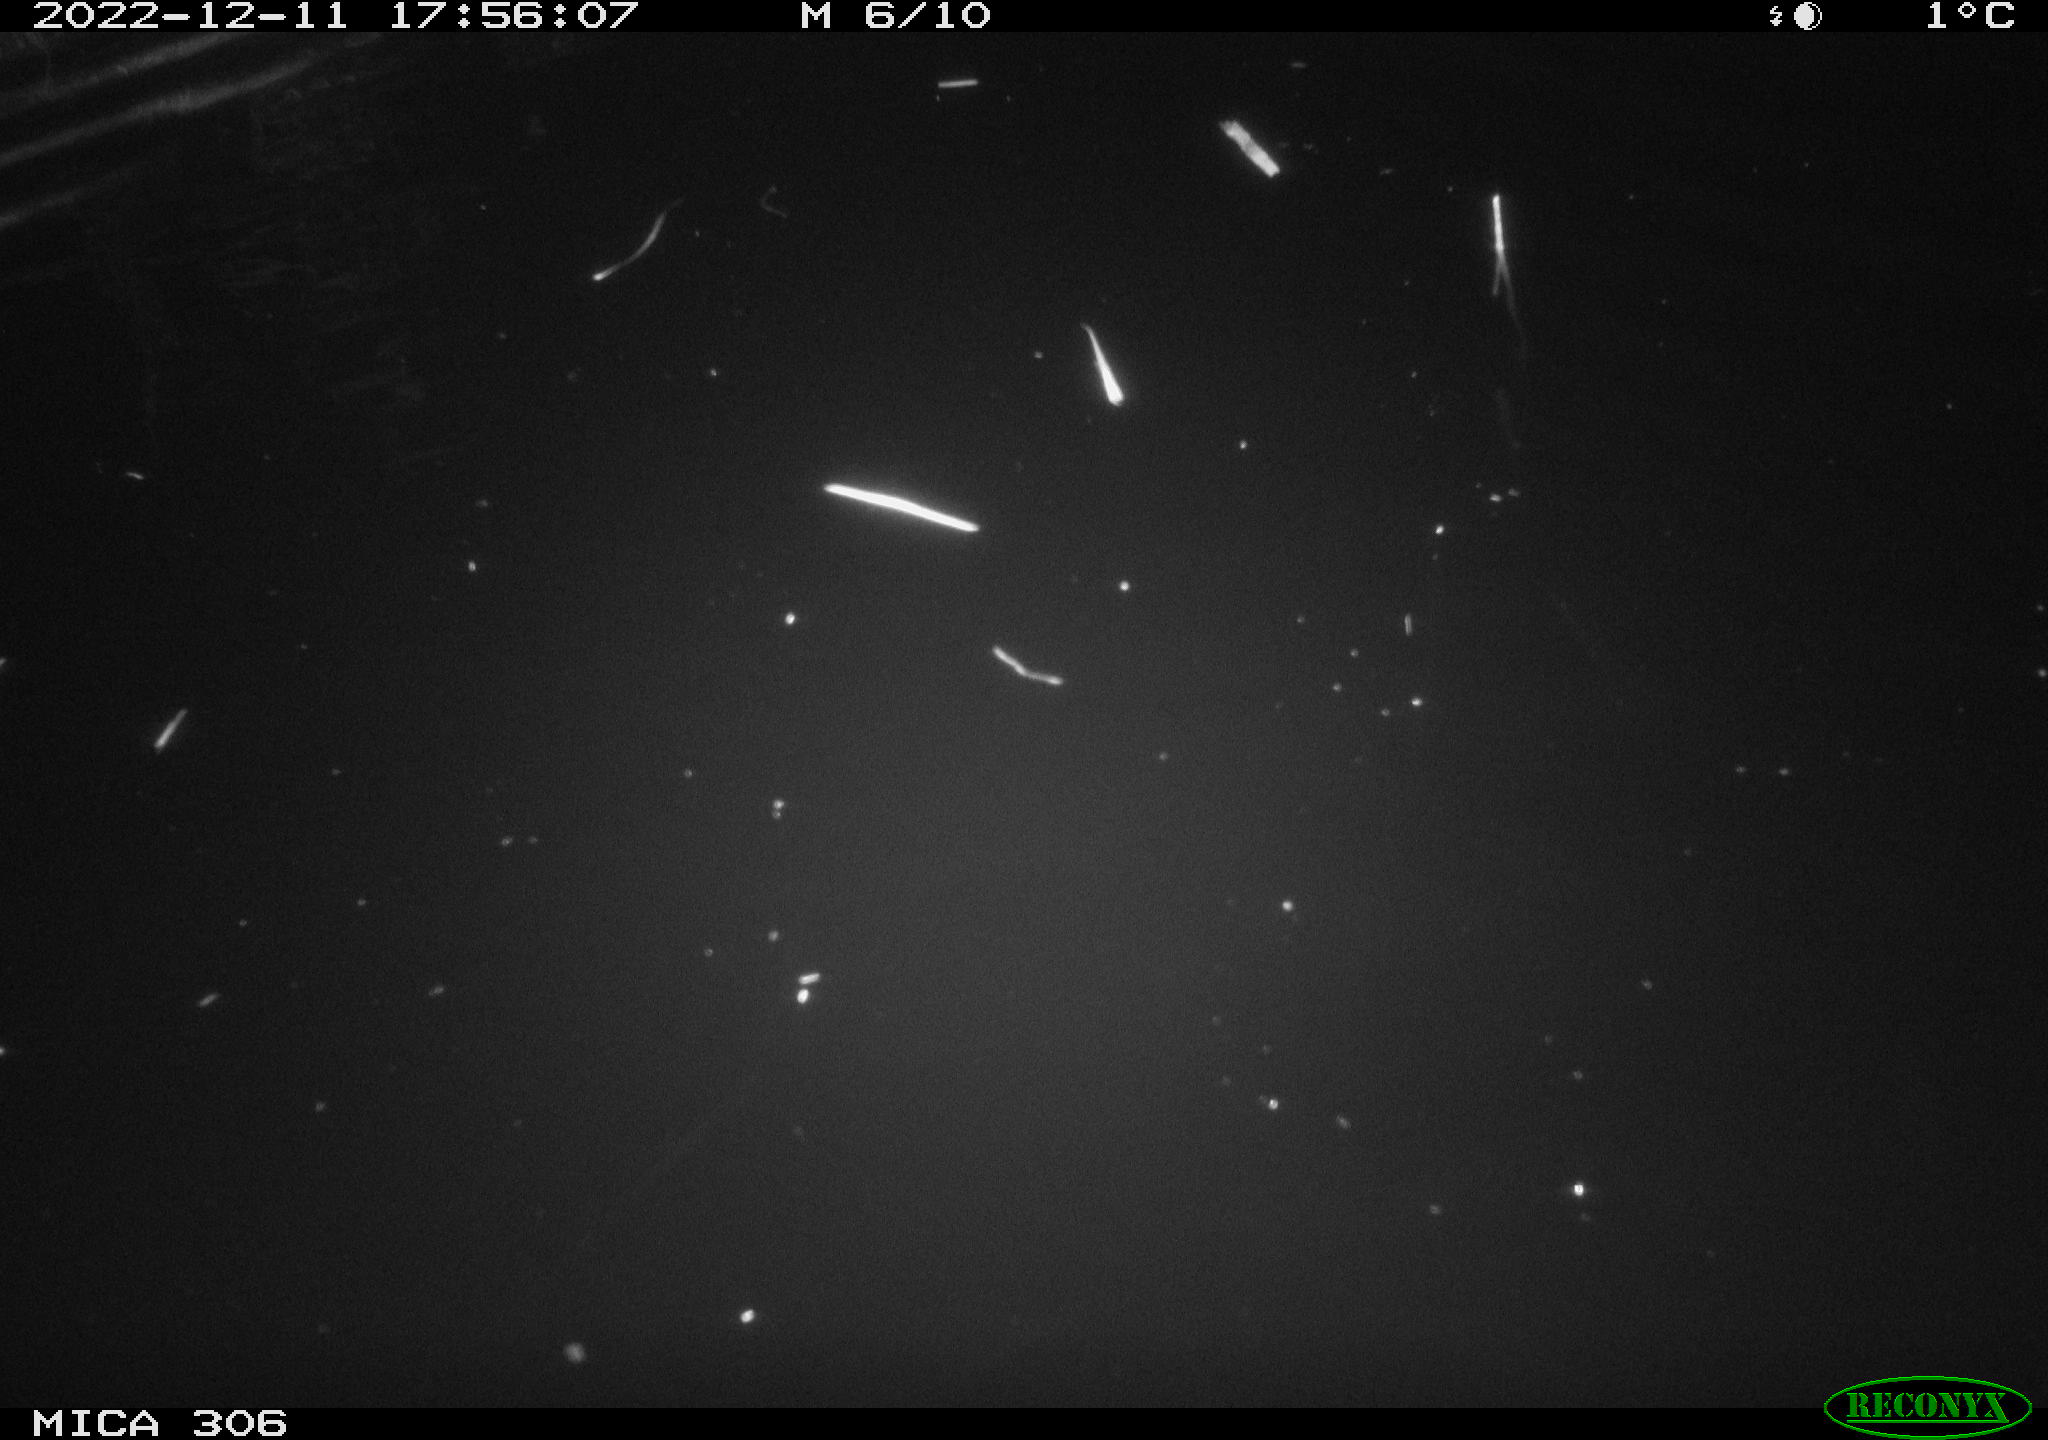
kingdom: Animalia
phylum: Chordata
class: Mammalia
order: Rodentia
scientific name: Rodentia
